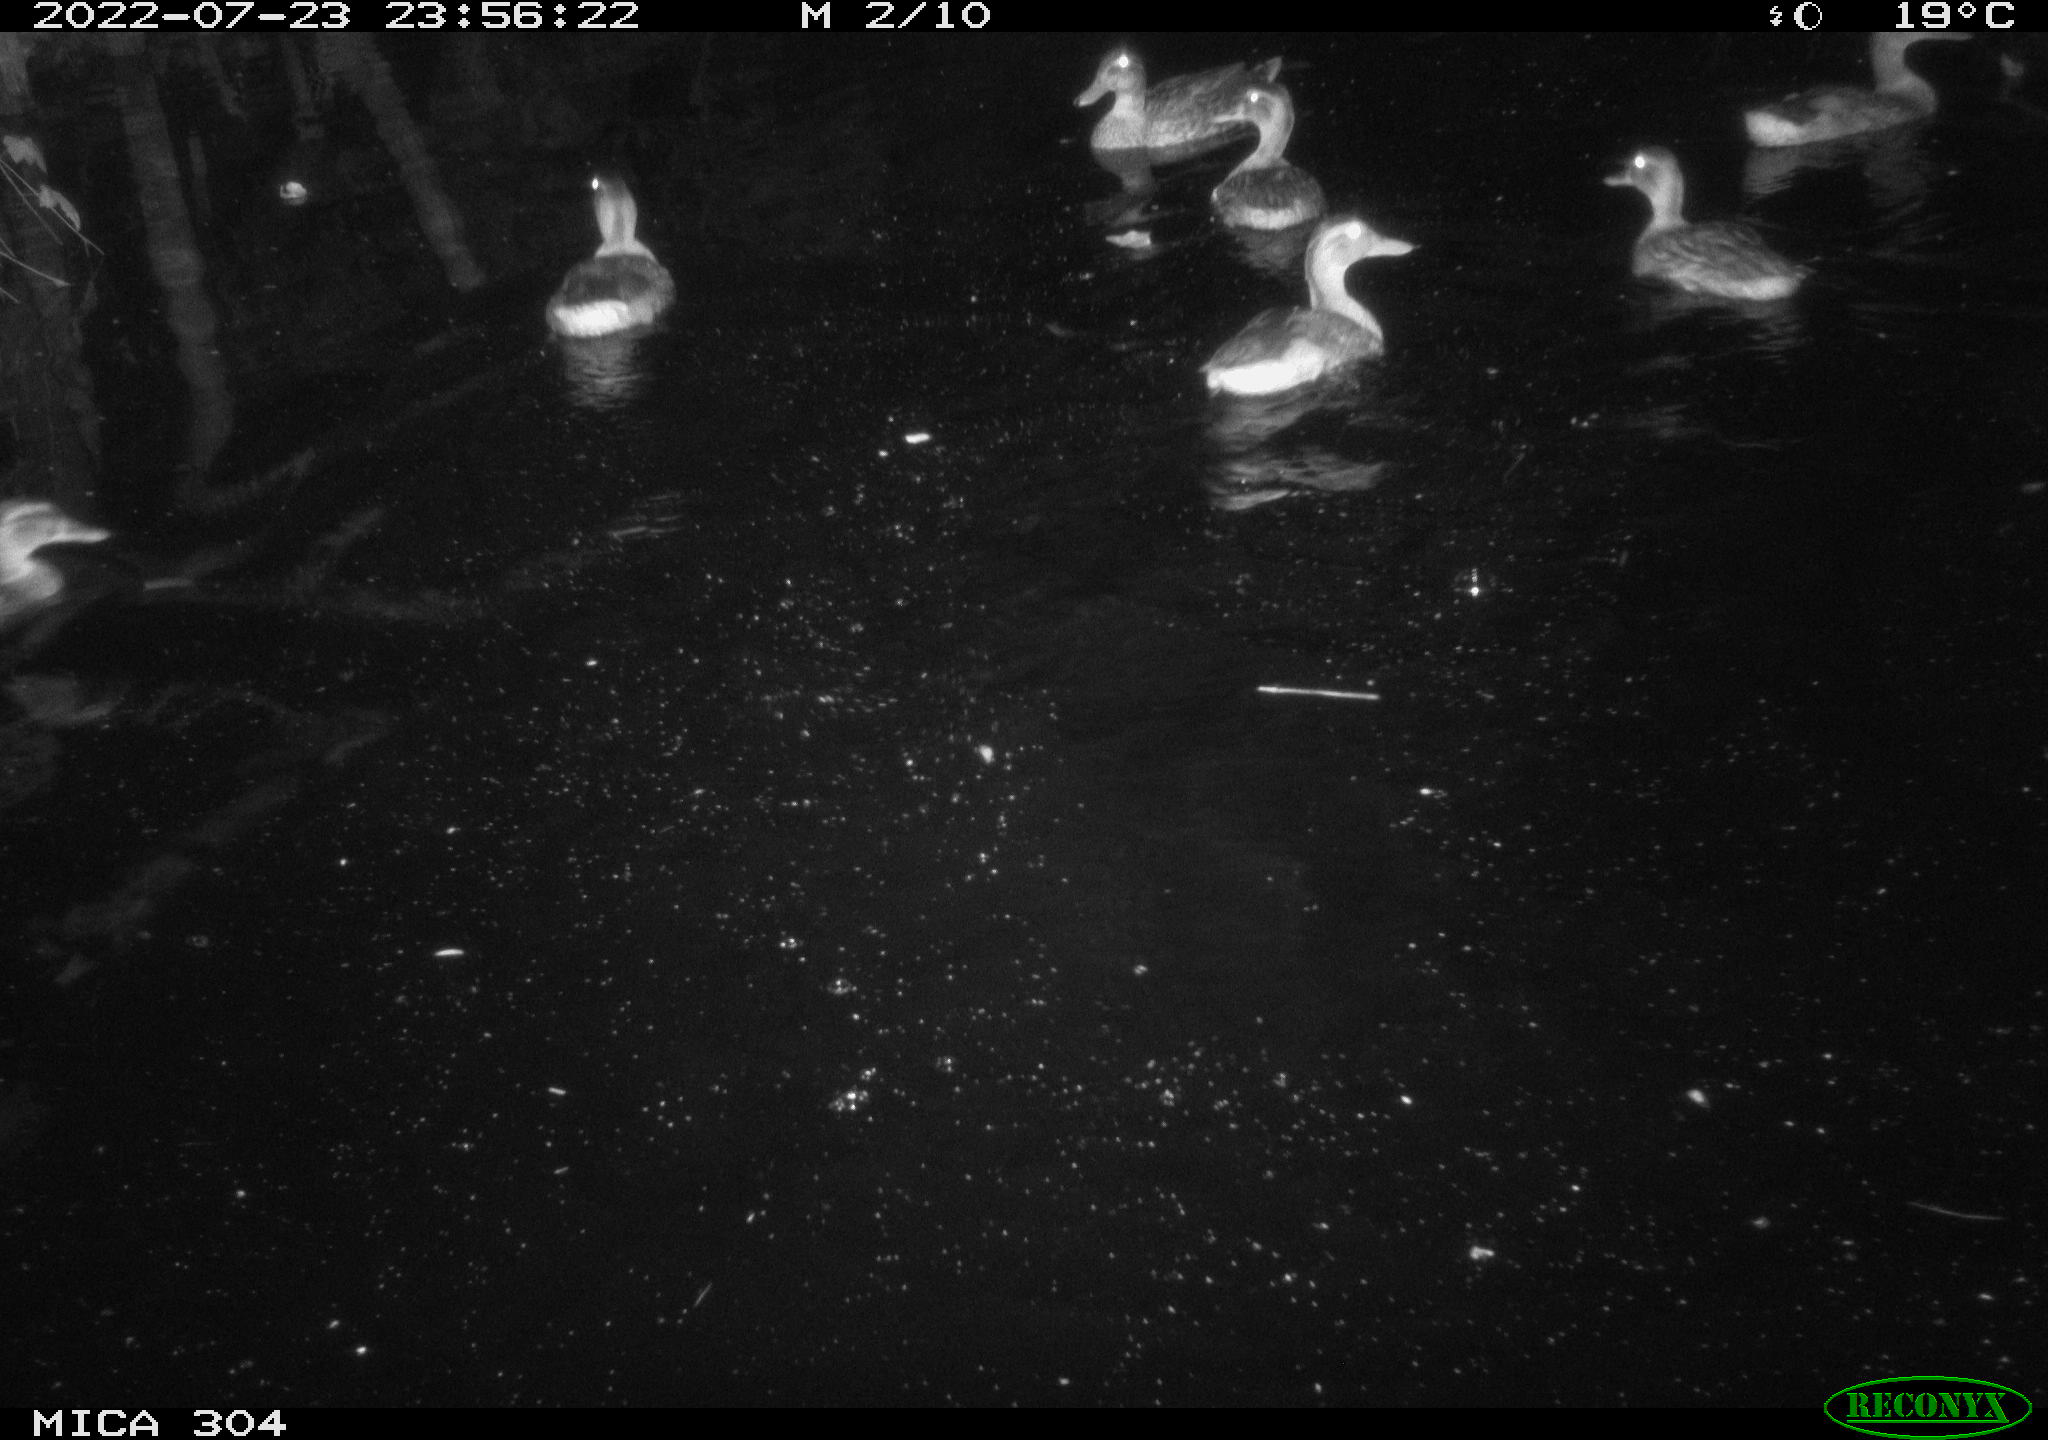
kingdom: Animalia
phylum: Chordata
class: Aves
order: Anseriformes
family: Anatidae
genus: Anas
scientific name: Anas platyrhynchos
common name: Mallard
